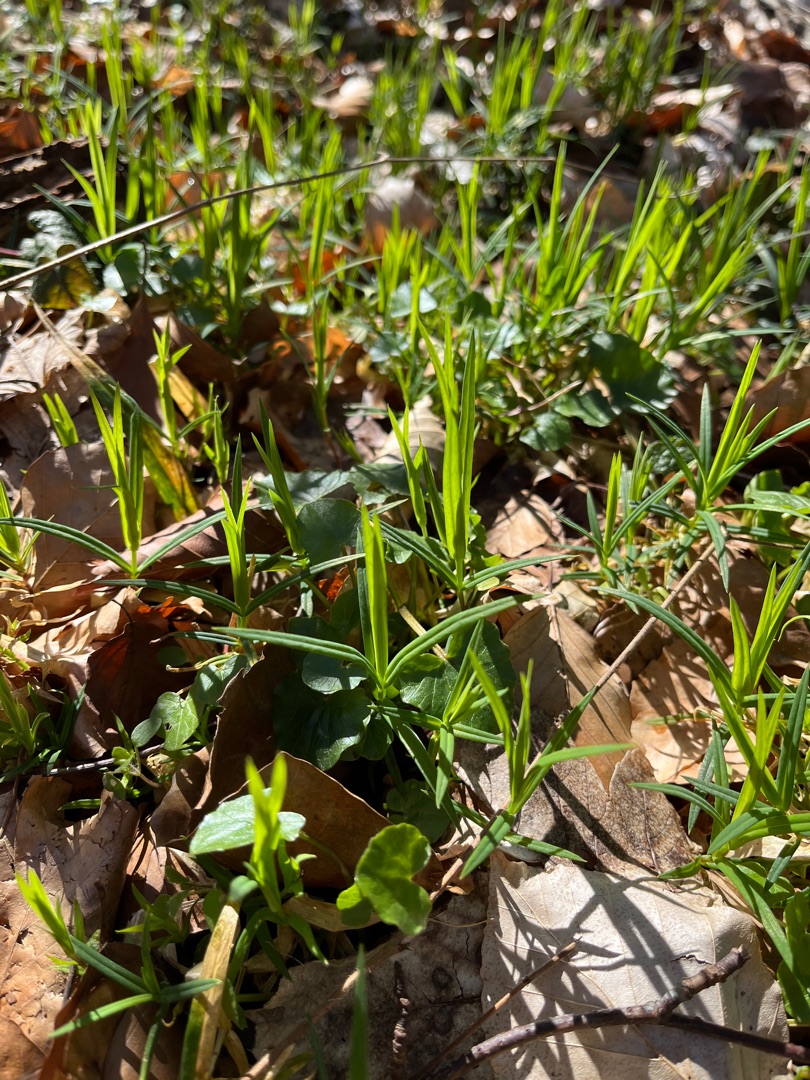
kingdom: Plantae
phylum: Tracheophyta
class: Magnoliopsida
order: Caryophyllales
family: Caryophyllaceae
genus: Rabelera
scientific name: Rabelera holostea
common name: Stor fladstjerne
